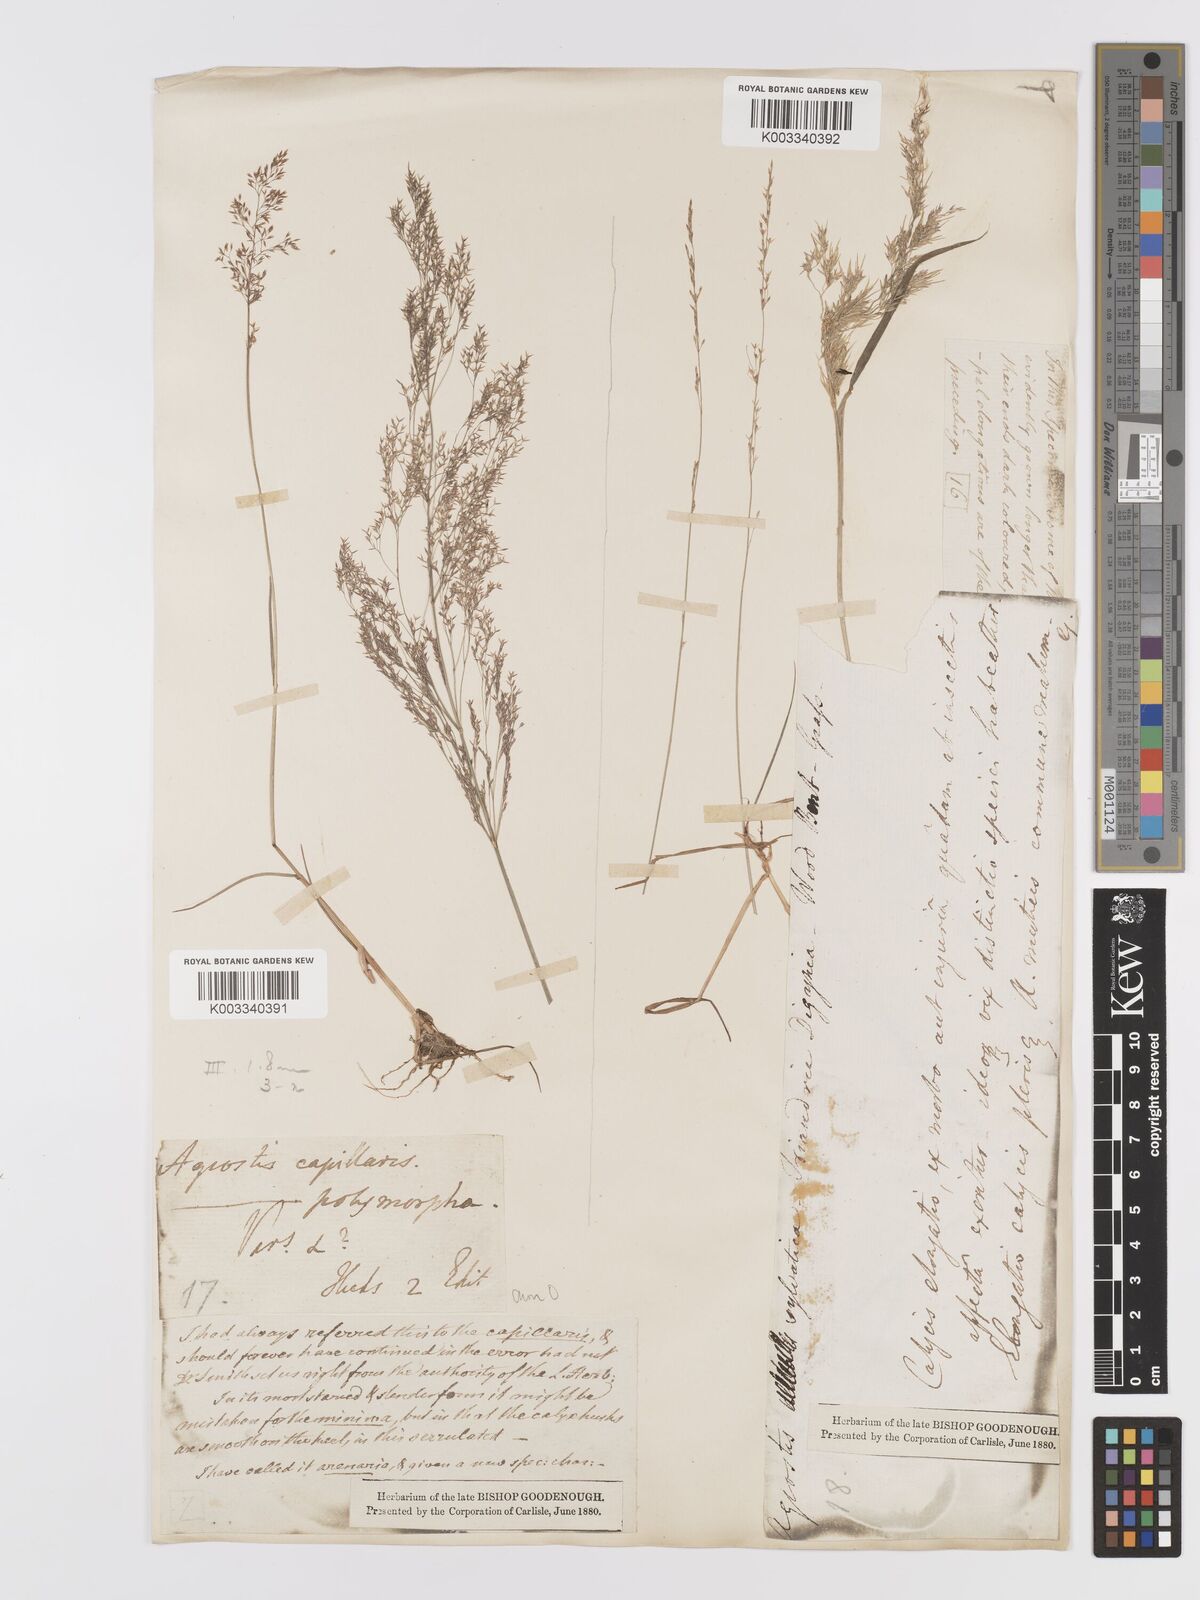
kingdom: Plantae
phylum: Tracheophyta
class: Liliopsida
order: Poales
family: Poaceae
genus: Agrostis
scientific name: Agrostis capillaris
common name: Colonial bentgrass
